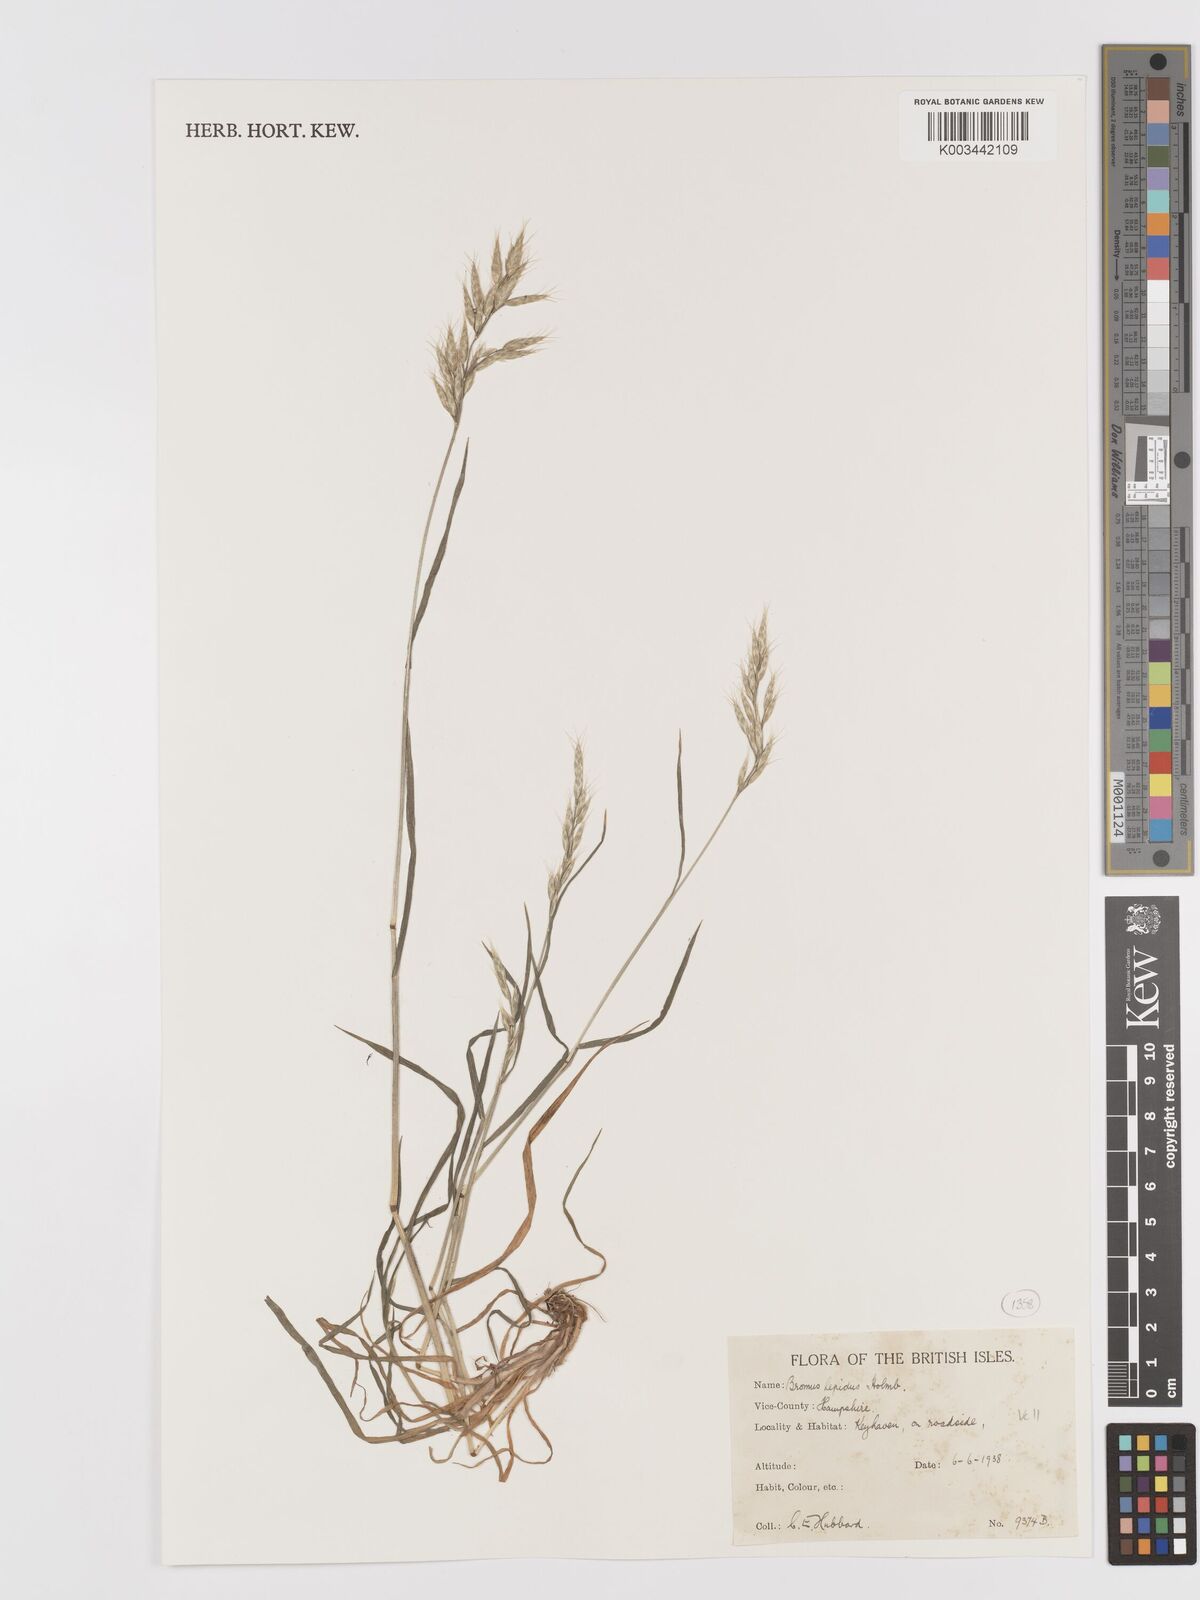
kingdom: Plantae
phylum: Tracheophyta
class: Liliopsida
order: Poales
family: Poaceae
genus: Bromus
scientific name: Bromus lepidus
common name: Slender soft-brome
